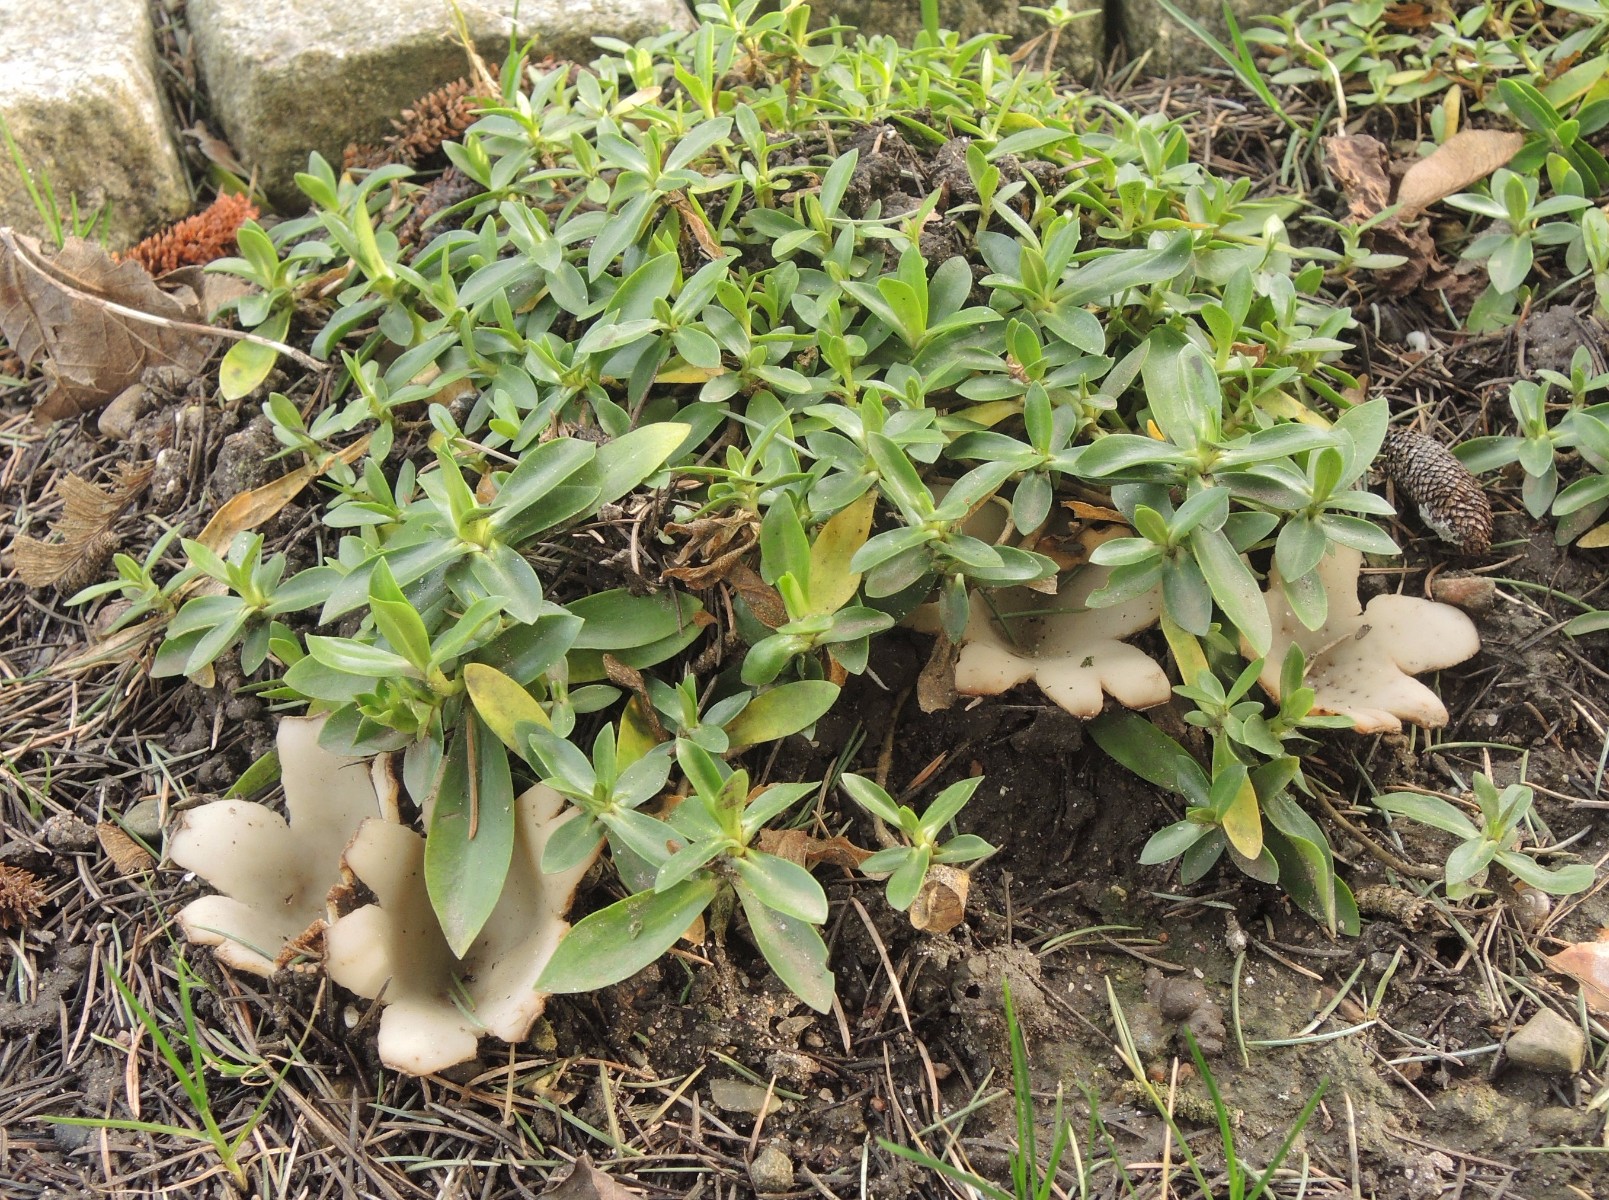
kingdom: Fungi
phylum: Ascomycota
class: Pezizomycetes
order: Pezizales
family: Pyronemataceae
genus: Geopora
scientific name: Geopora sumneriana
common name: vår-jordbæger
